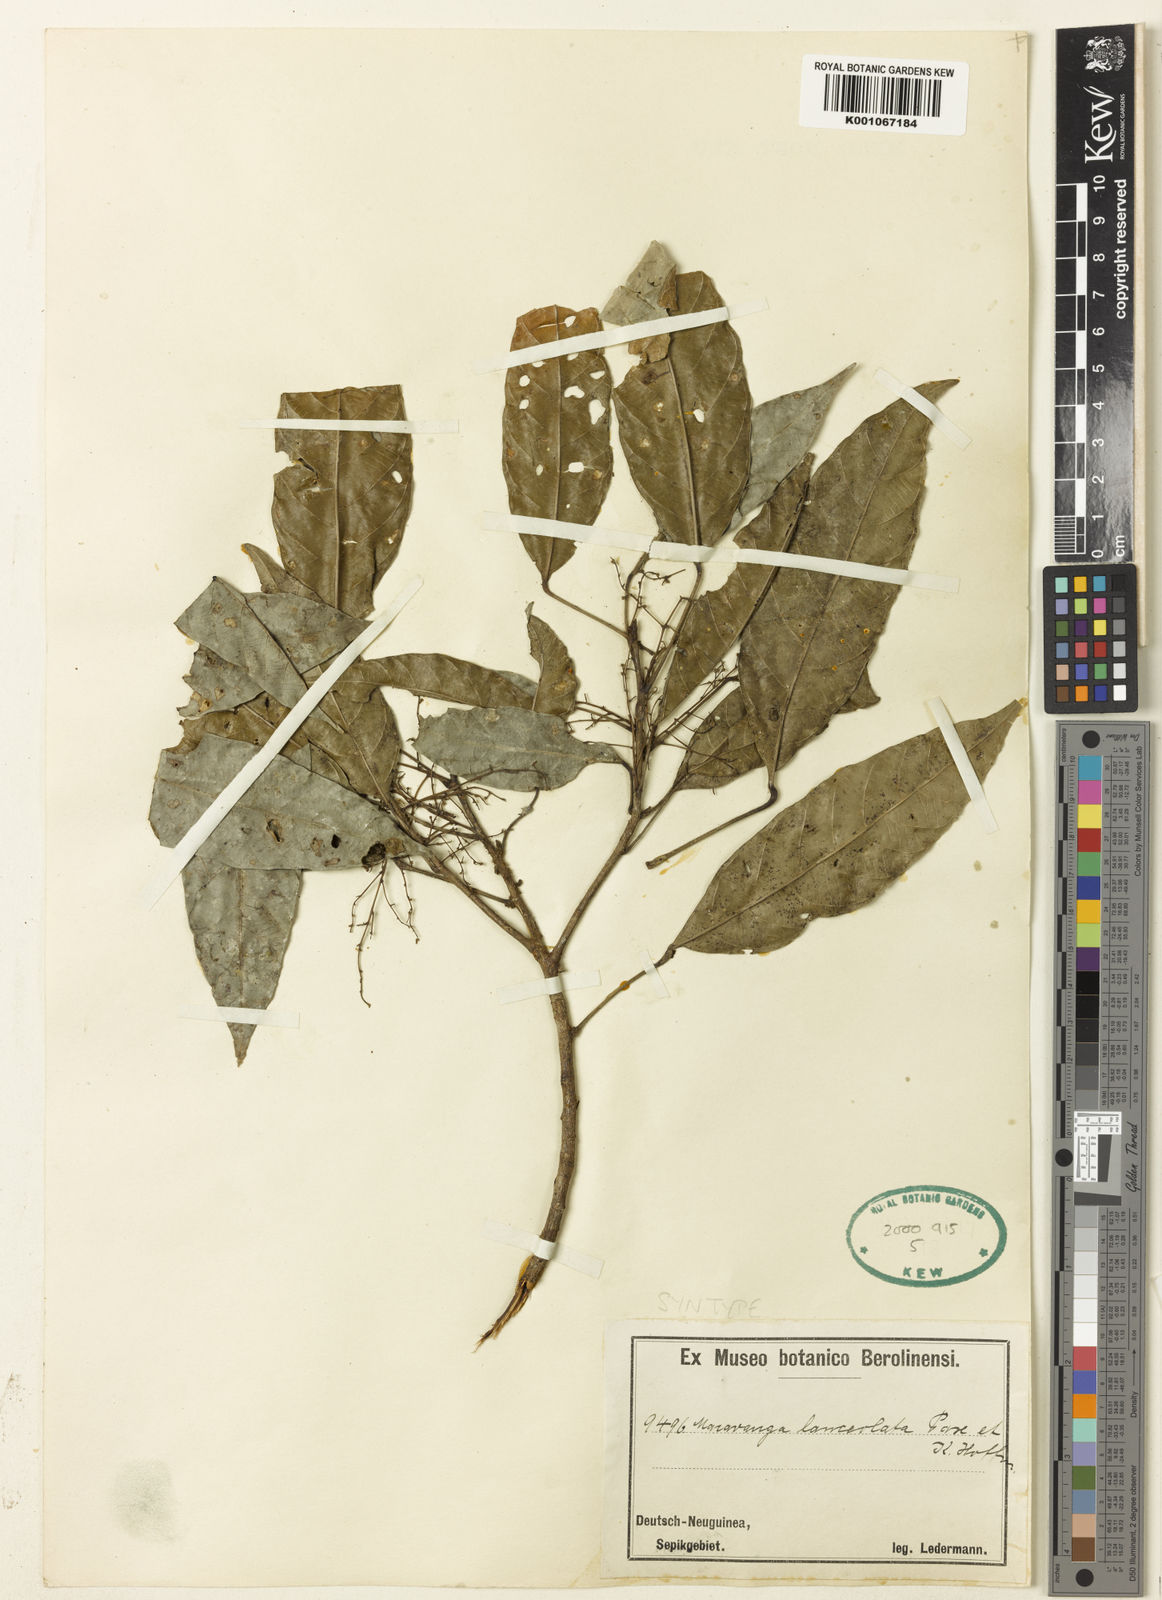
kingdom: Plantae
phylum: Tracheophyta
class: Magnoliopsida
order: Malpighiales
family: Euphorbiaceae
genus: Macaranga
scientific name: Macaranga lanceolata
